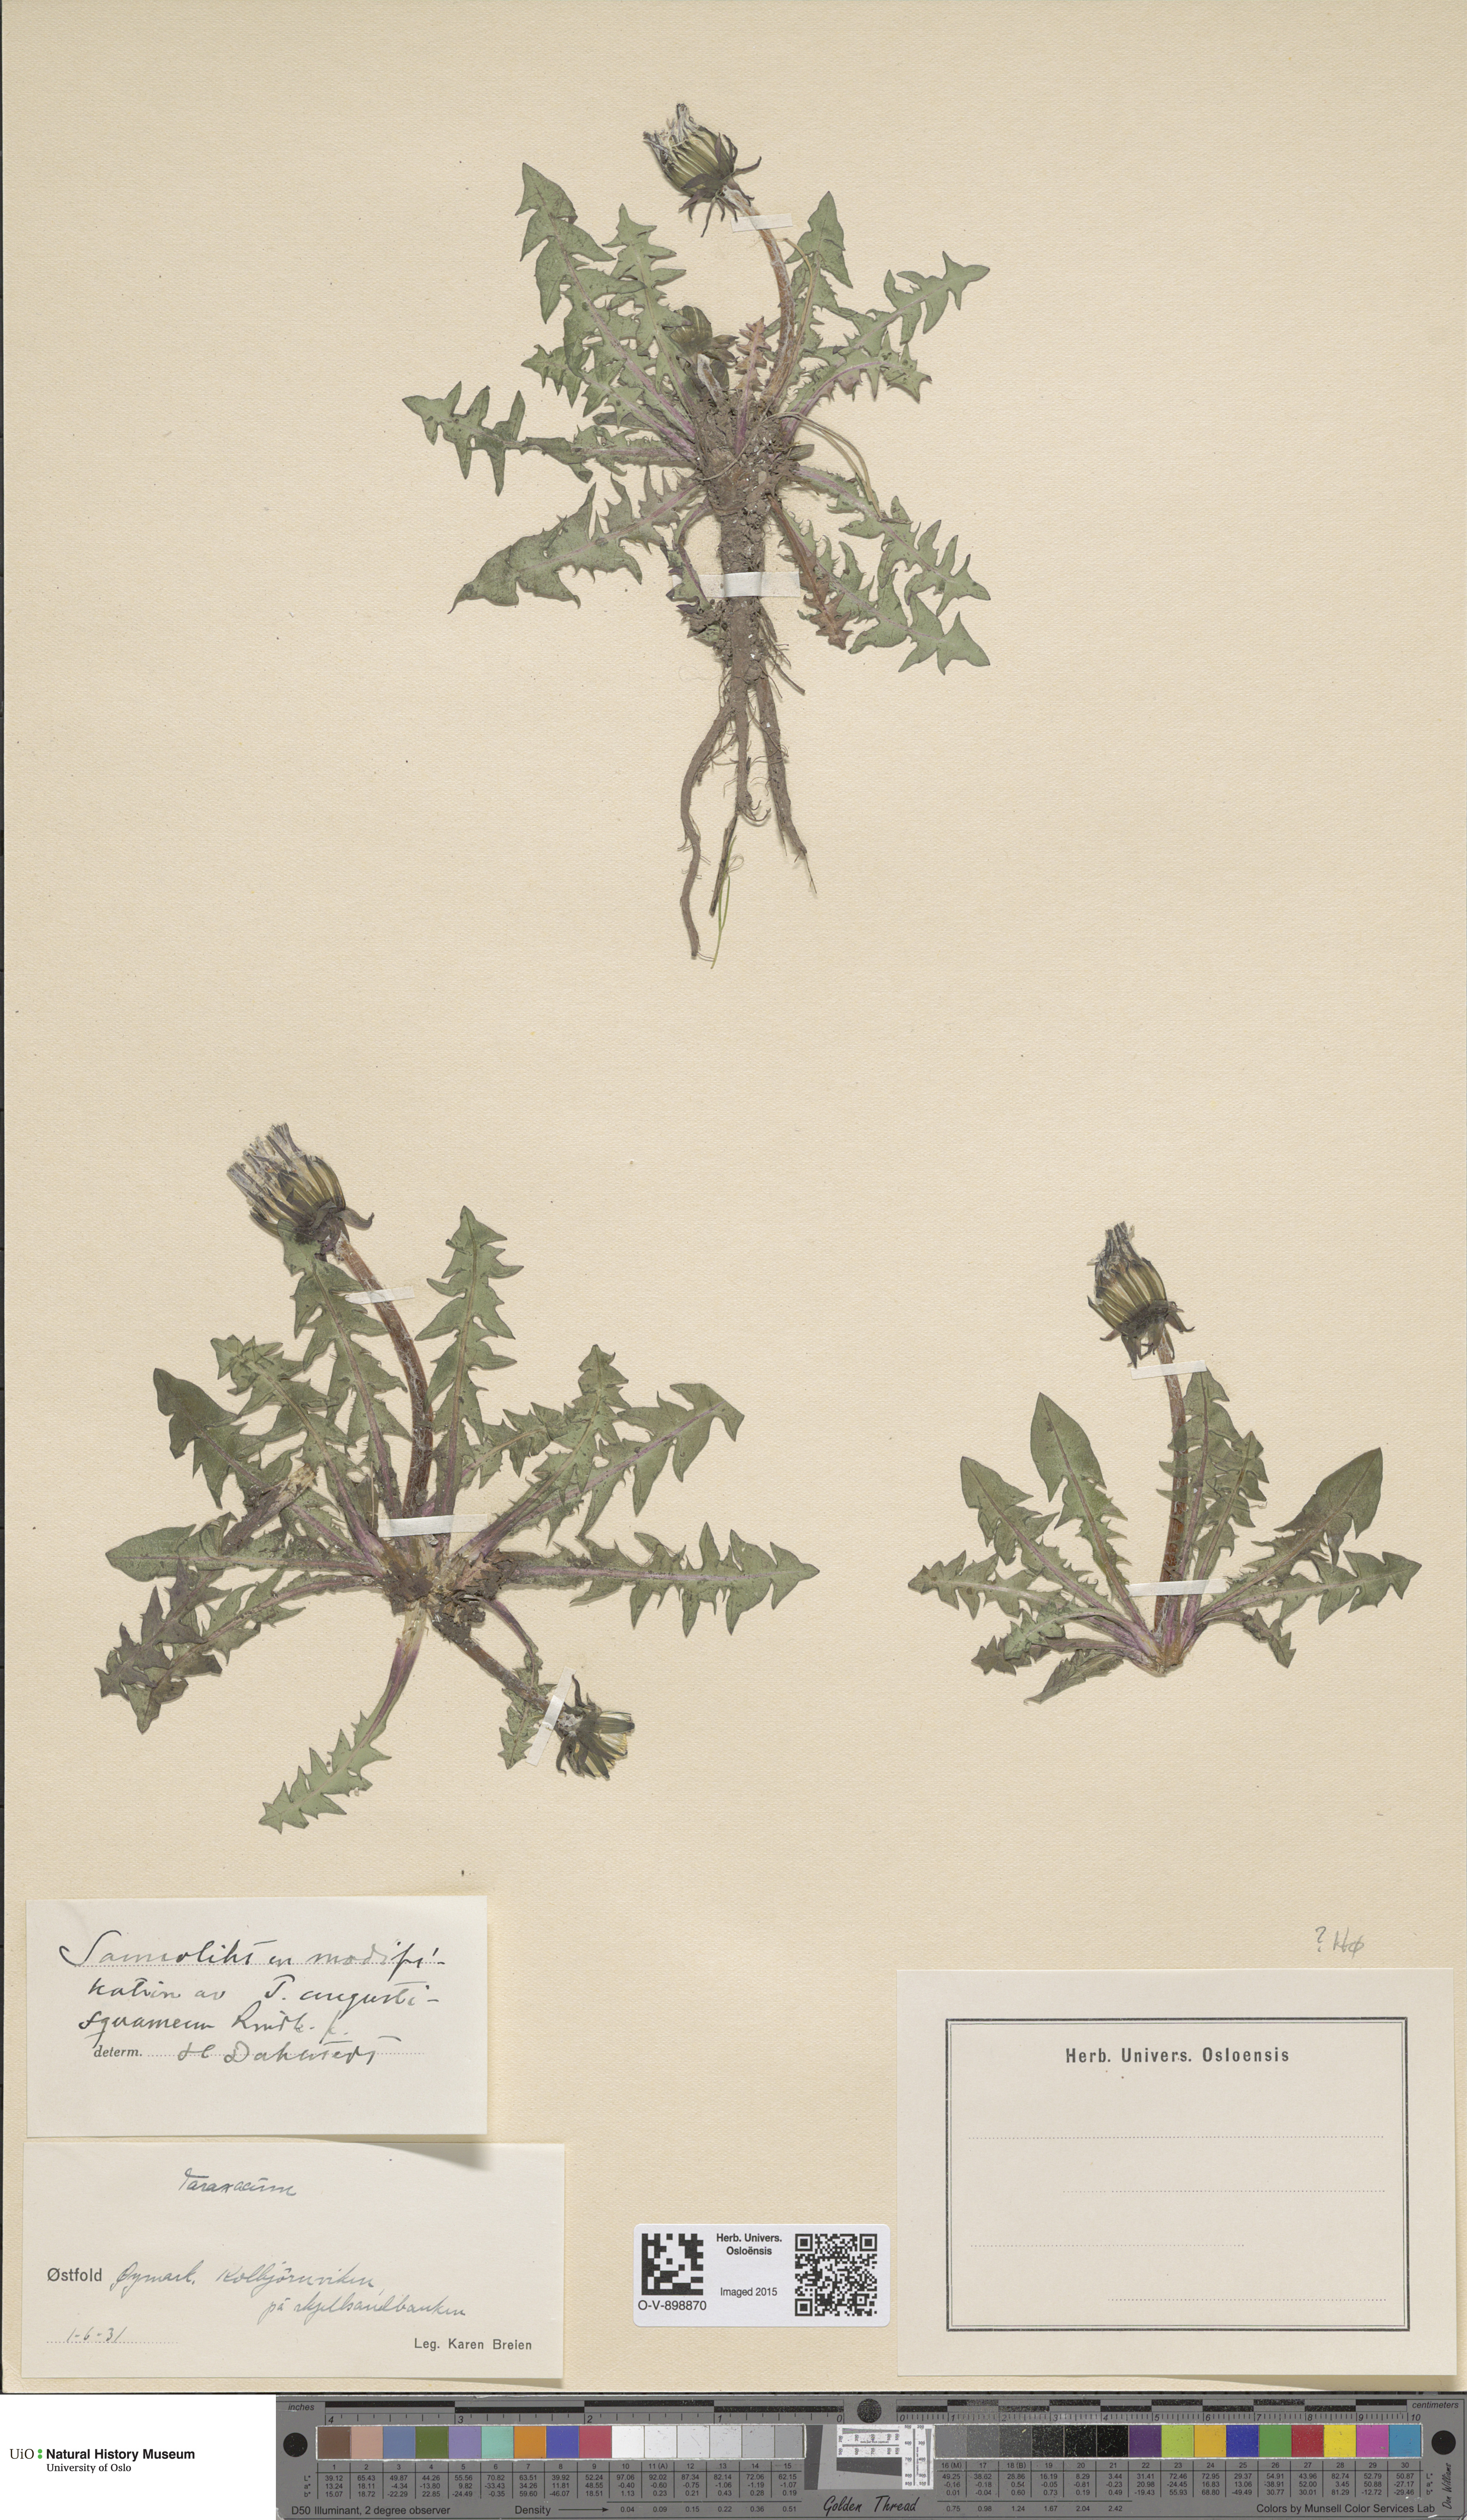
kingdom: Plantae
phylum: Tracheophyta
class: Magnoliopsida
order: Asterales
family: Asteraceae
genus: Taraxacum
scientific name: Taraxacum angustisquameum
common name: Multilobed dandelion
